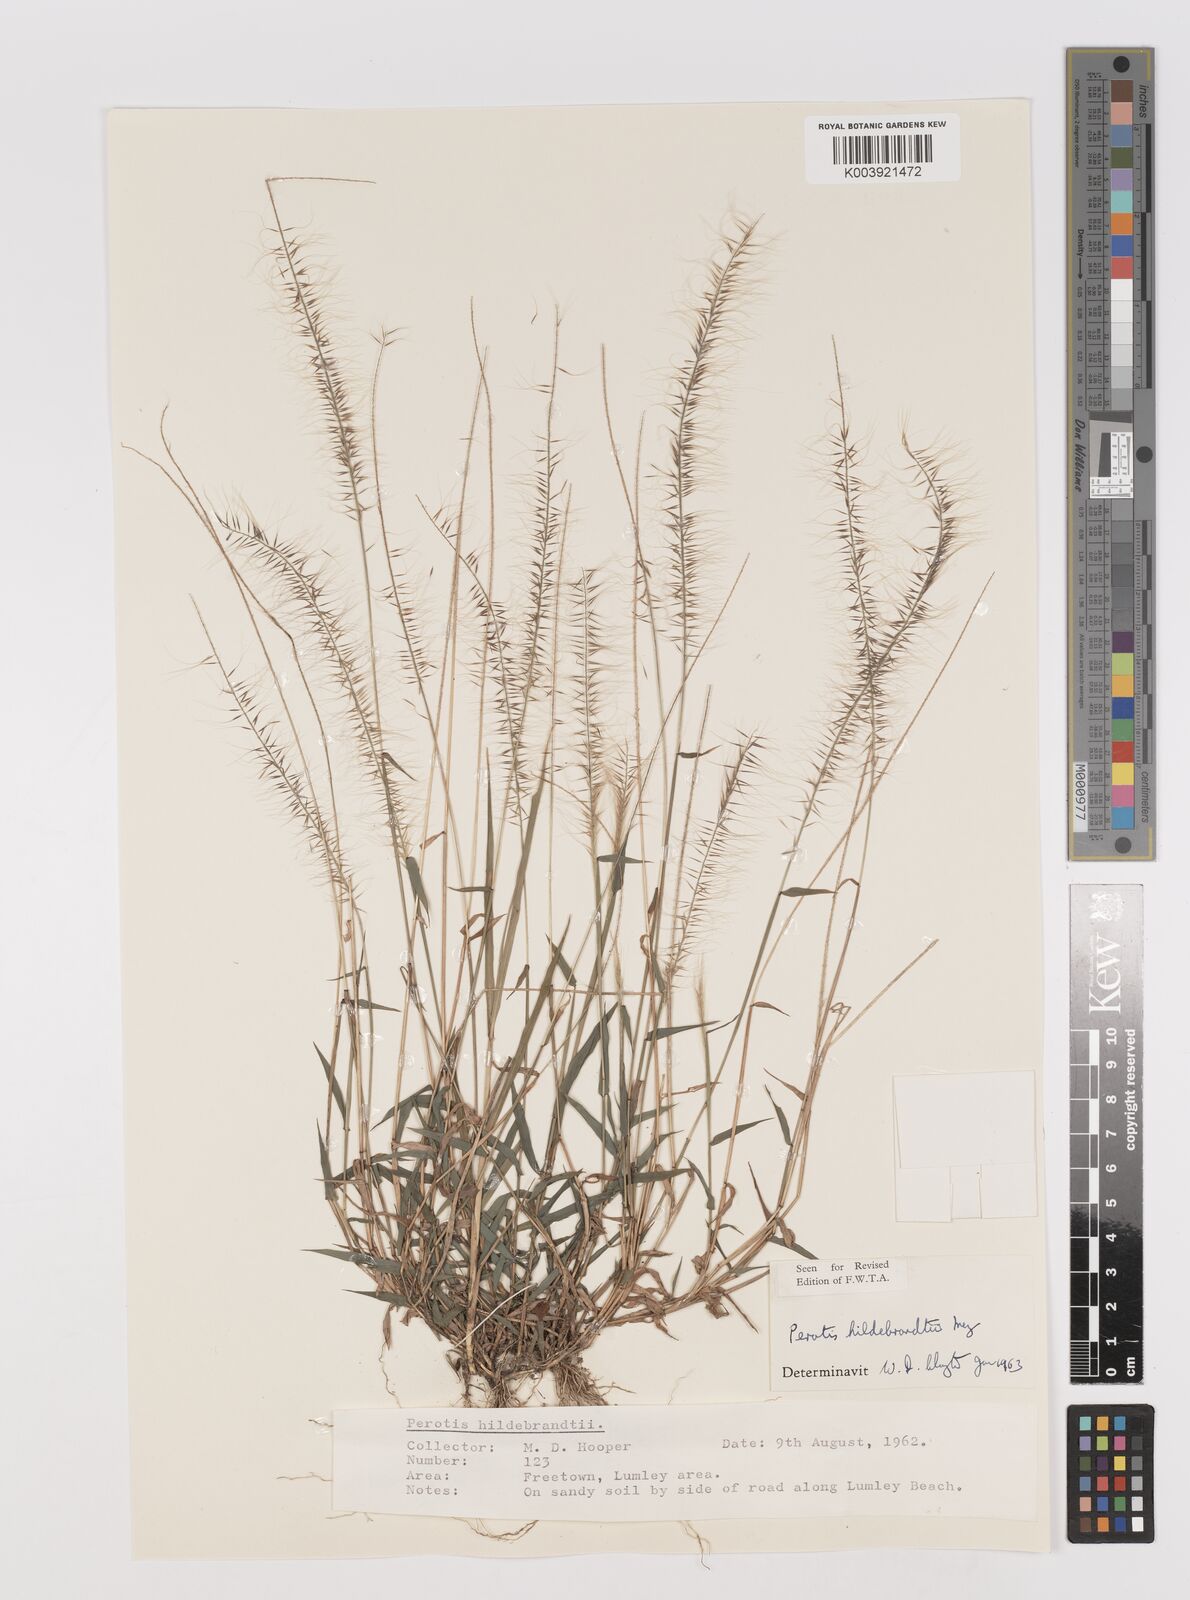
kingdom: Plantae
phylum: Tracheophyta
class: Liliopsida
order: Poales
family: Poaceae
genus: Perotis
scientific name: Perotis hildebrandtii
